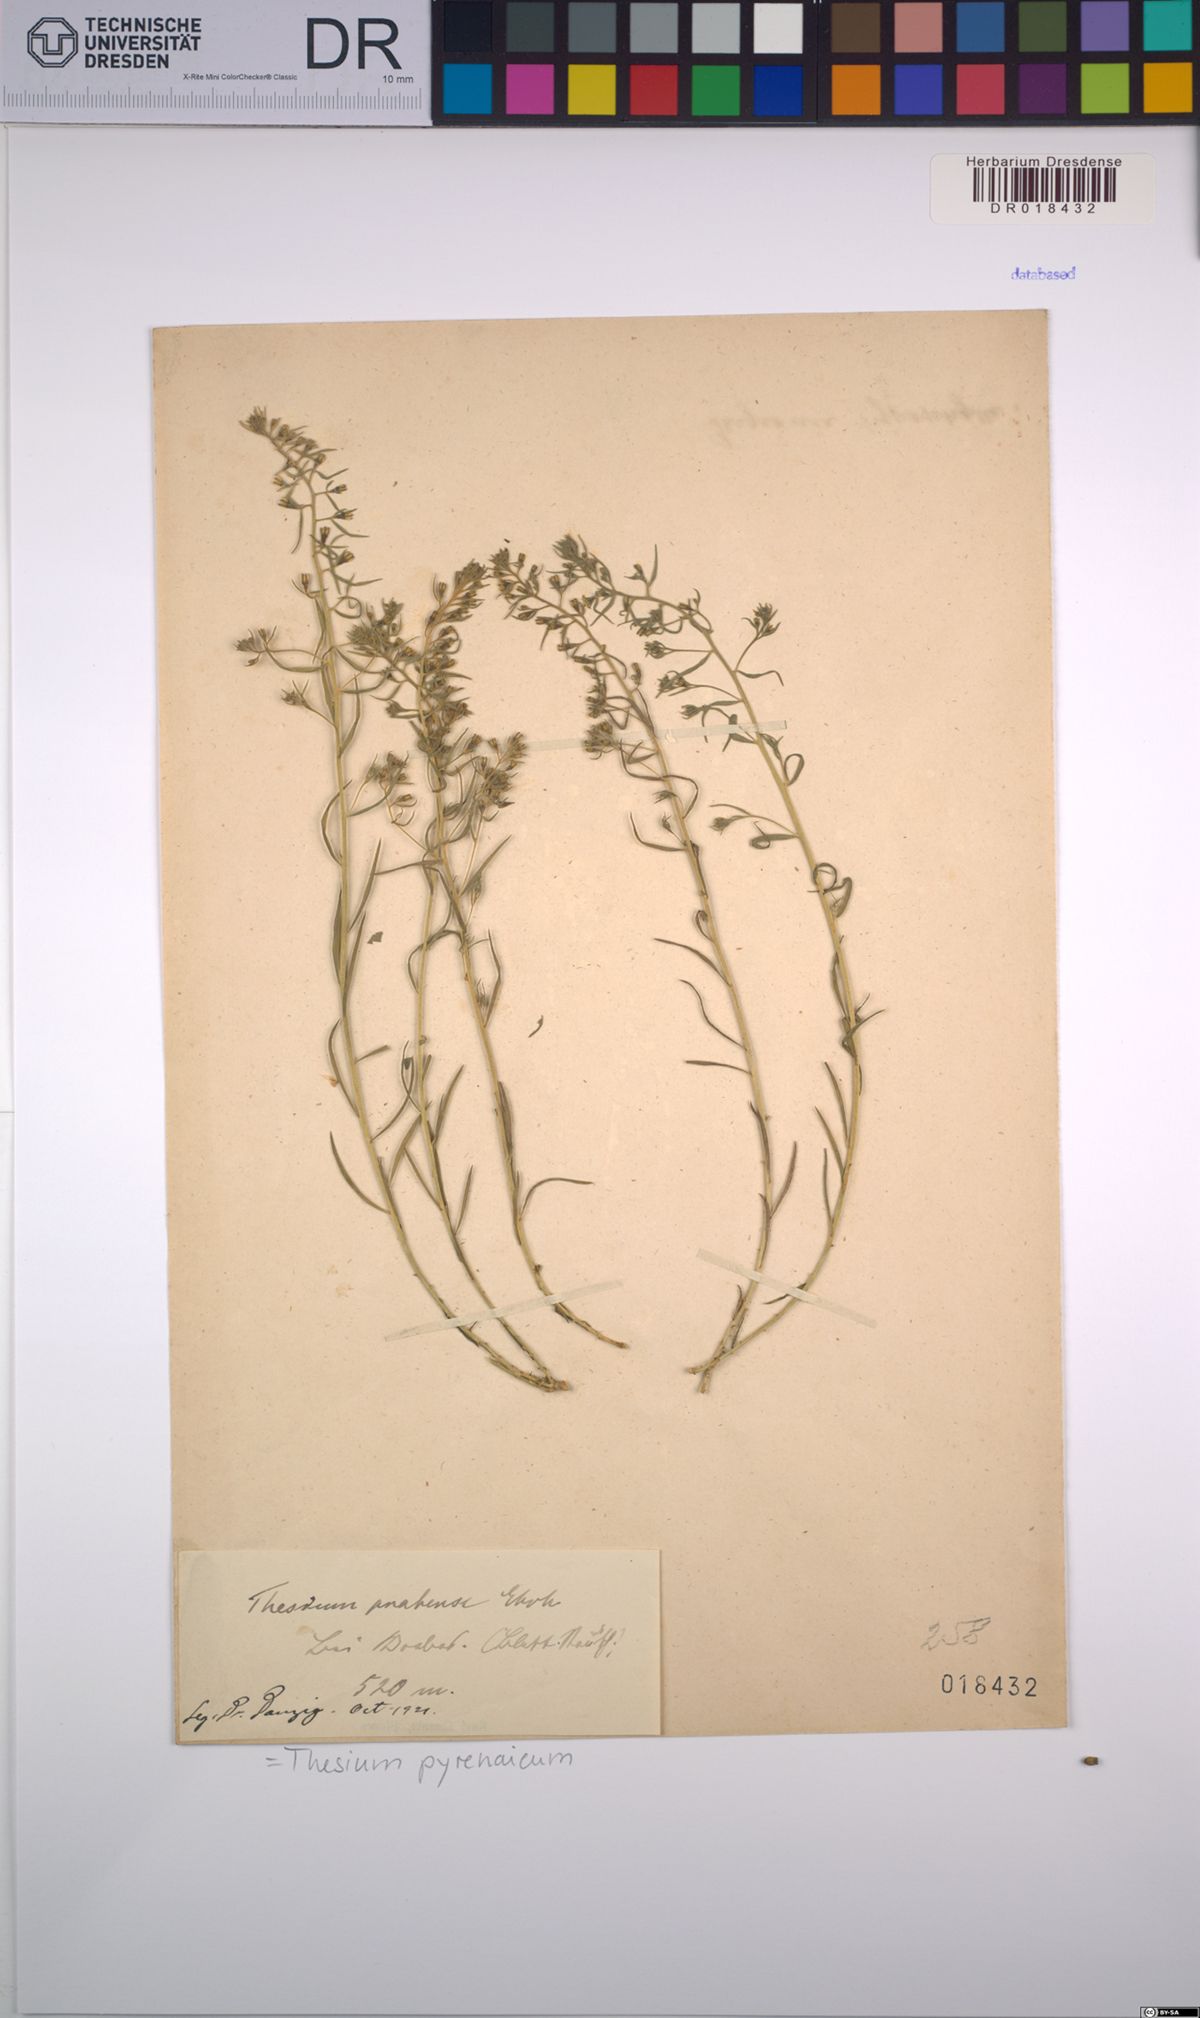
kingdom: Plantae
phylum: Tracheophyta
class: Magnoliopsida
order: Santalales
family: Thesiaceae
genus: Thesium
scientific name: Thesium pyrenaicum
